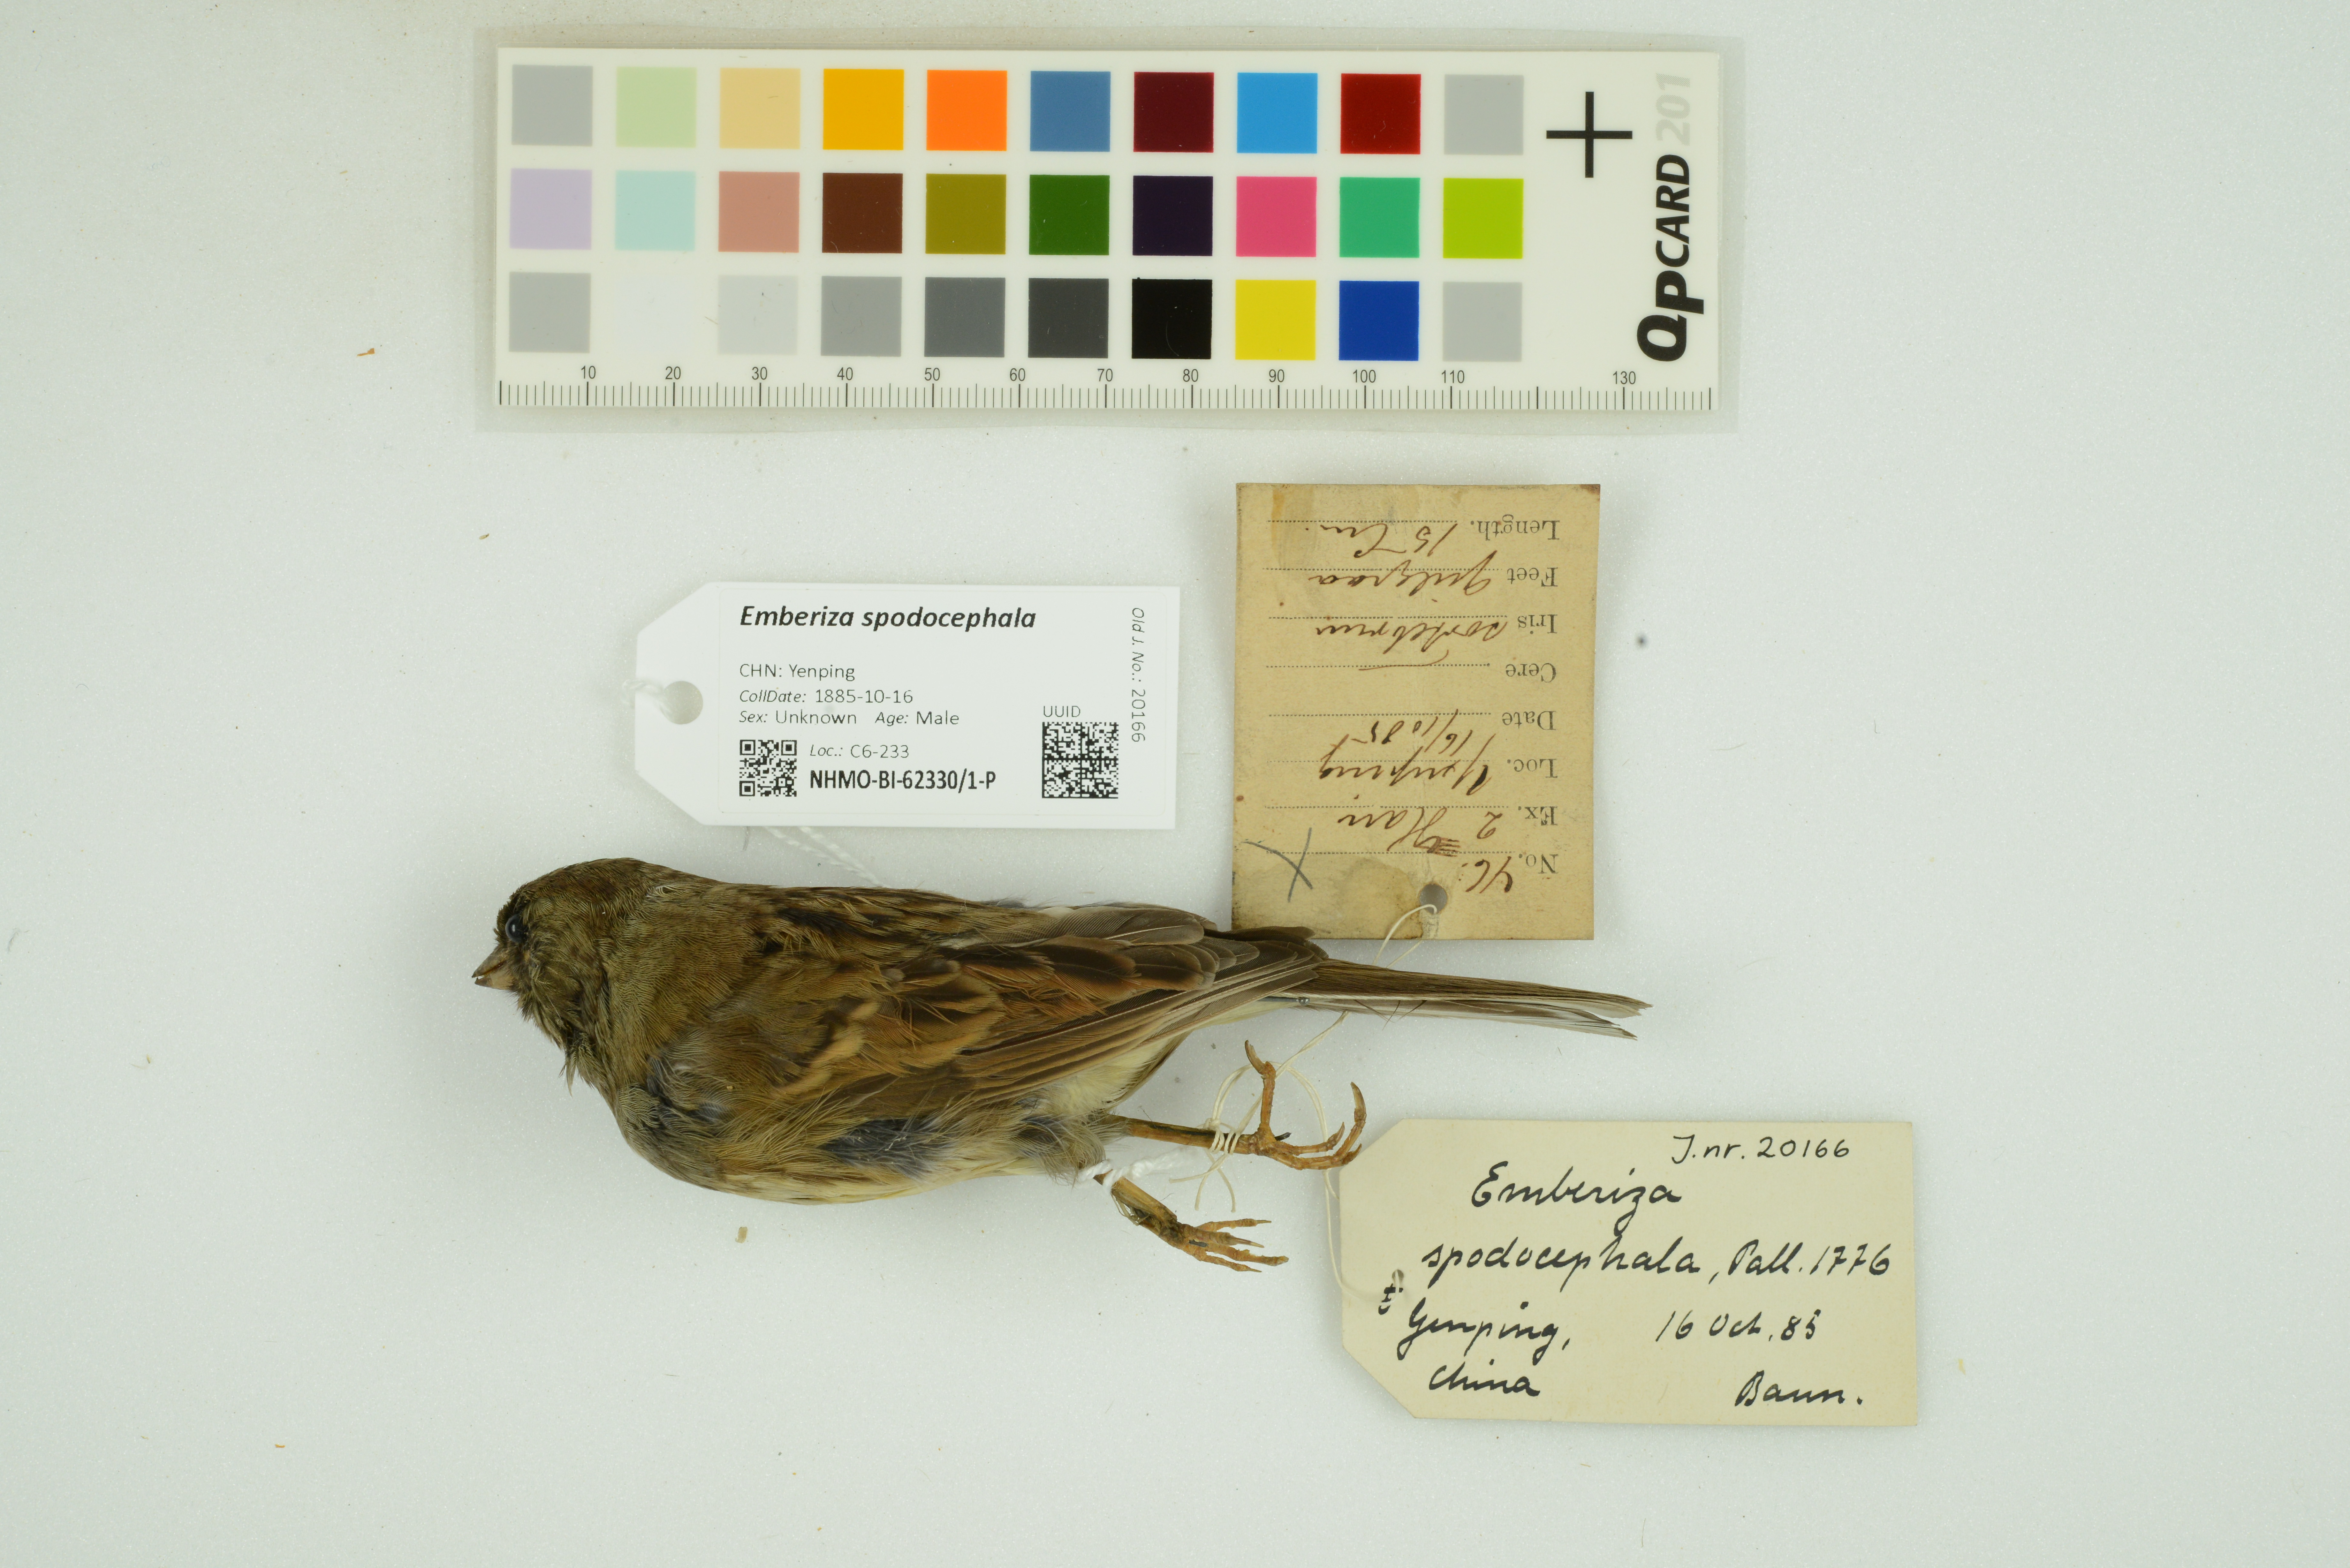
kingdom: Animalia
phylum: Chordata
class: Aves
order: Passeriformes
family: Emberizidae
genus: Emberiza
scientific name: Emberiza spodocephala
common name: Black-faced bunting
